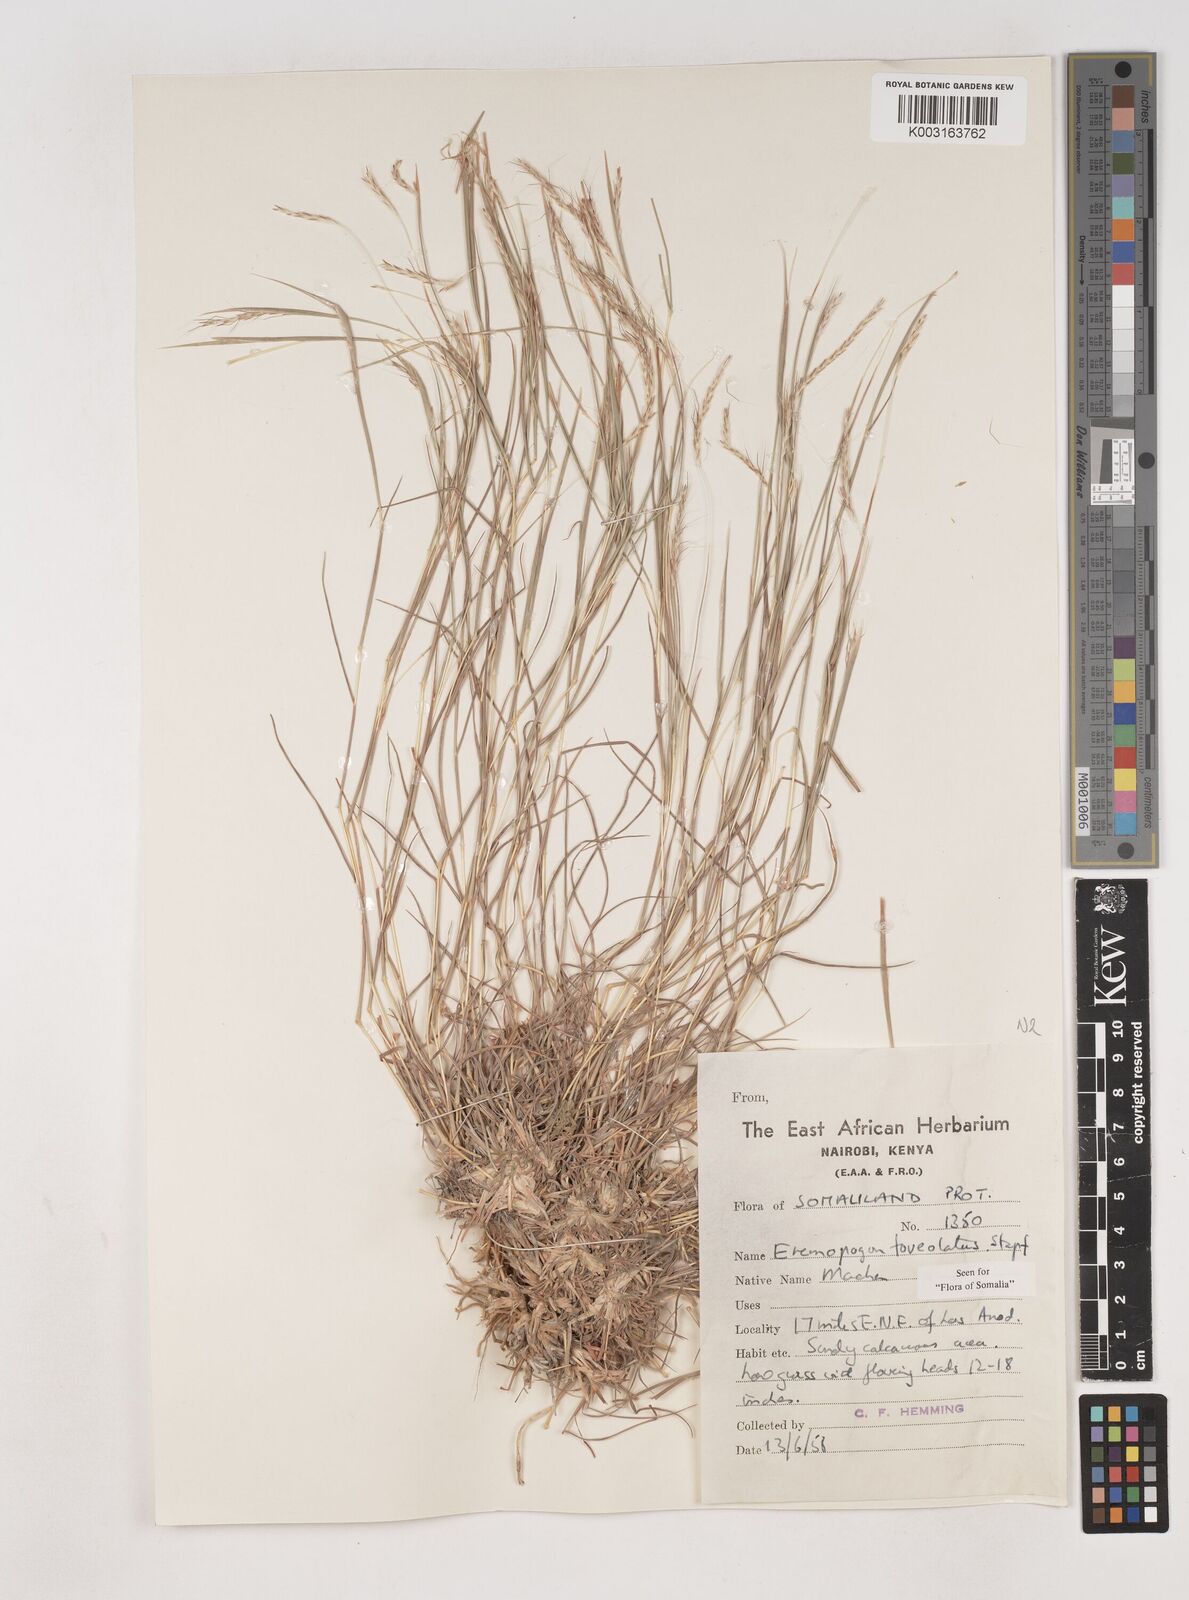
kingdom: Plantae
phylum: Tracheophyta
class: Liliopsida
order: Poales
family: Poaceae
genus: Dichanthium
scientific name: Dichanthium foveolatum
